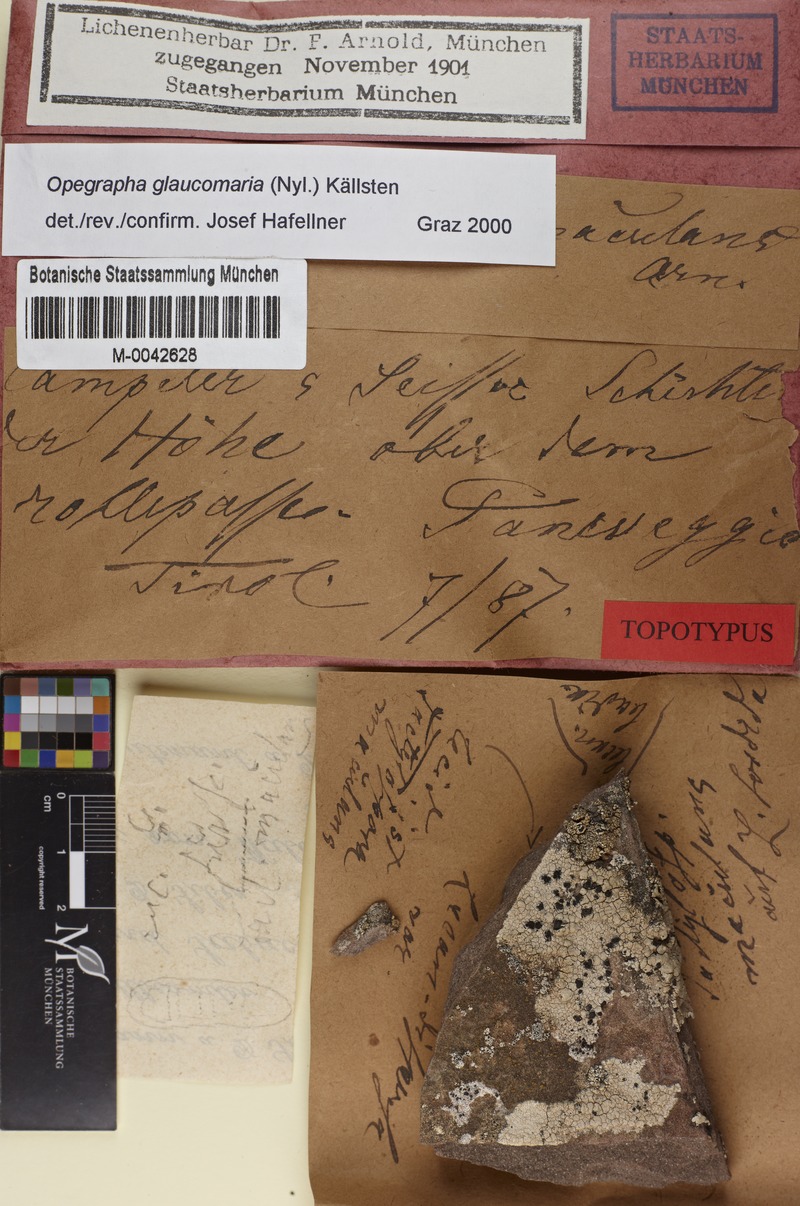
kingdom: Fungi
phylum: Ascomycota
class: Arthoniomycetes
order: Arthoniales
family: Roccellaceae
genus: Phacographa
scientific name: Phacographa glaucomaria
